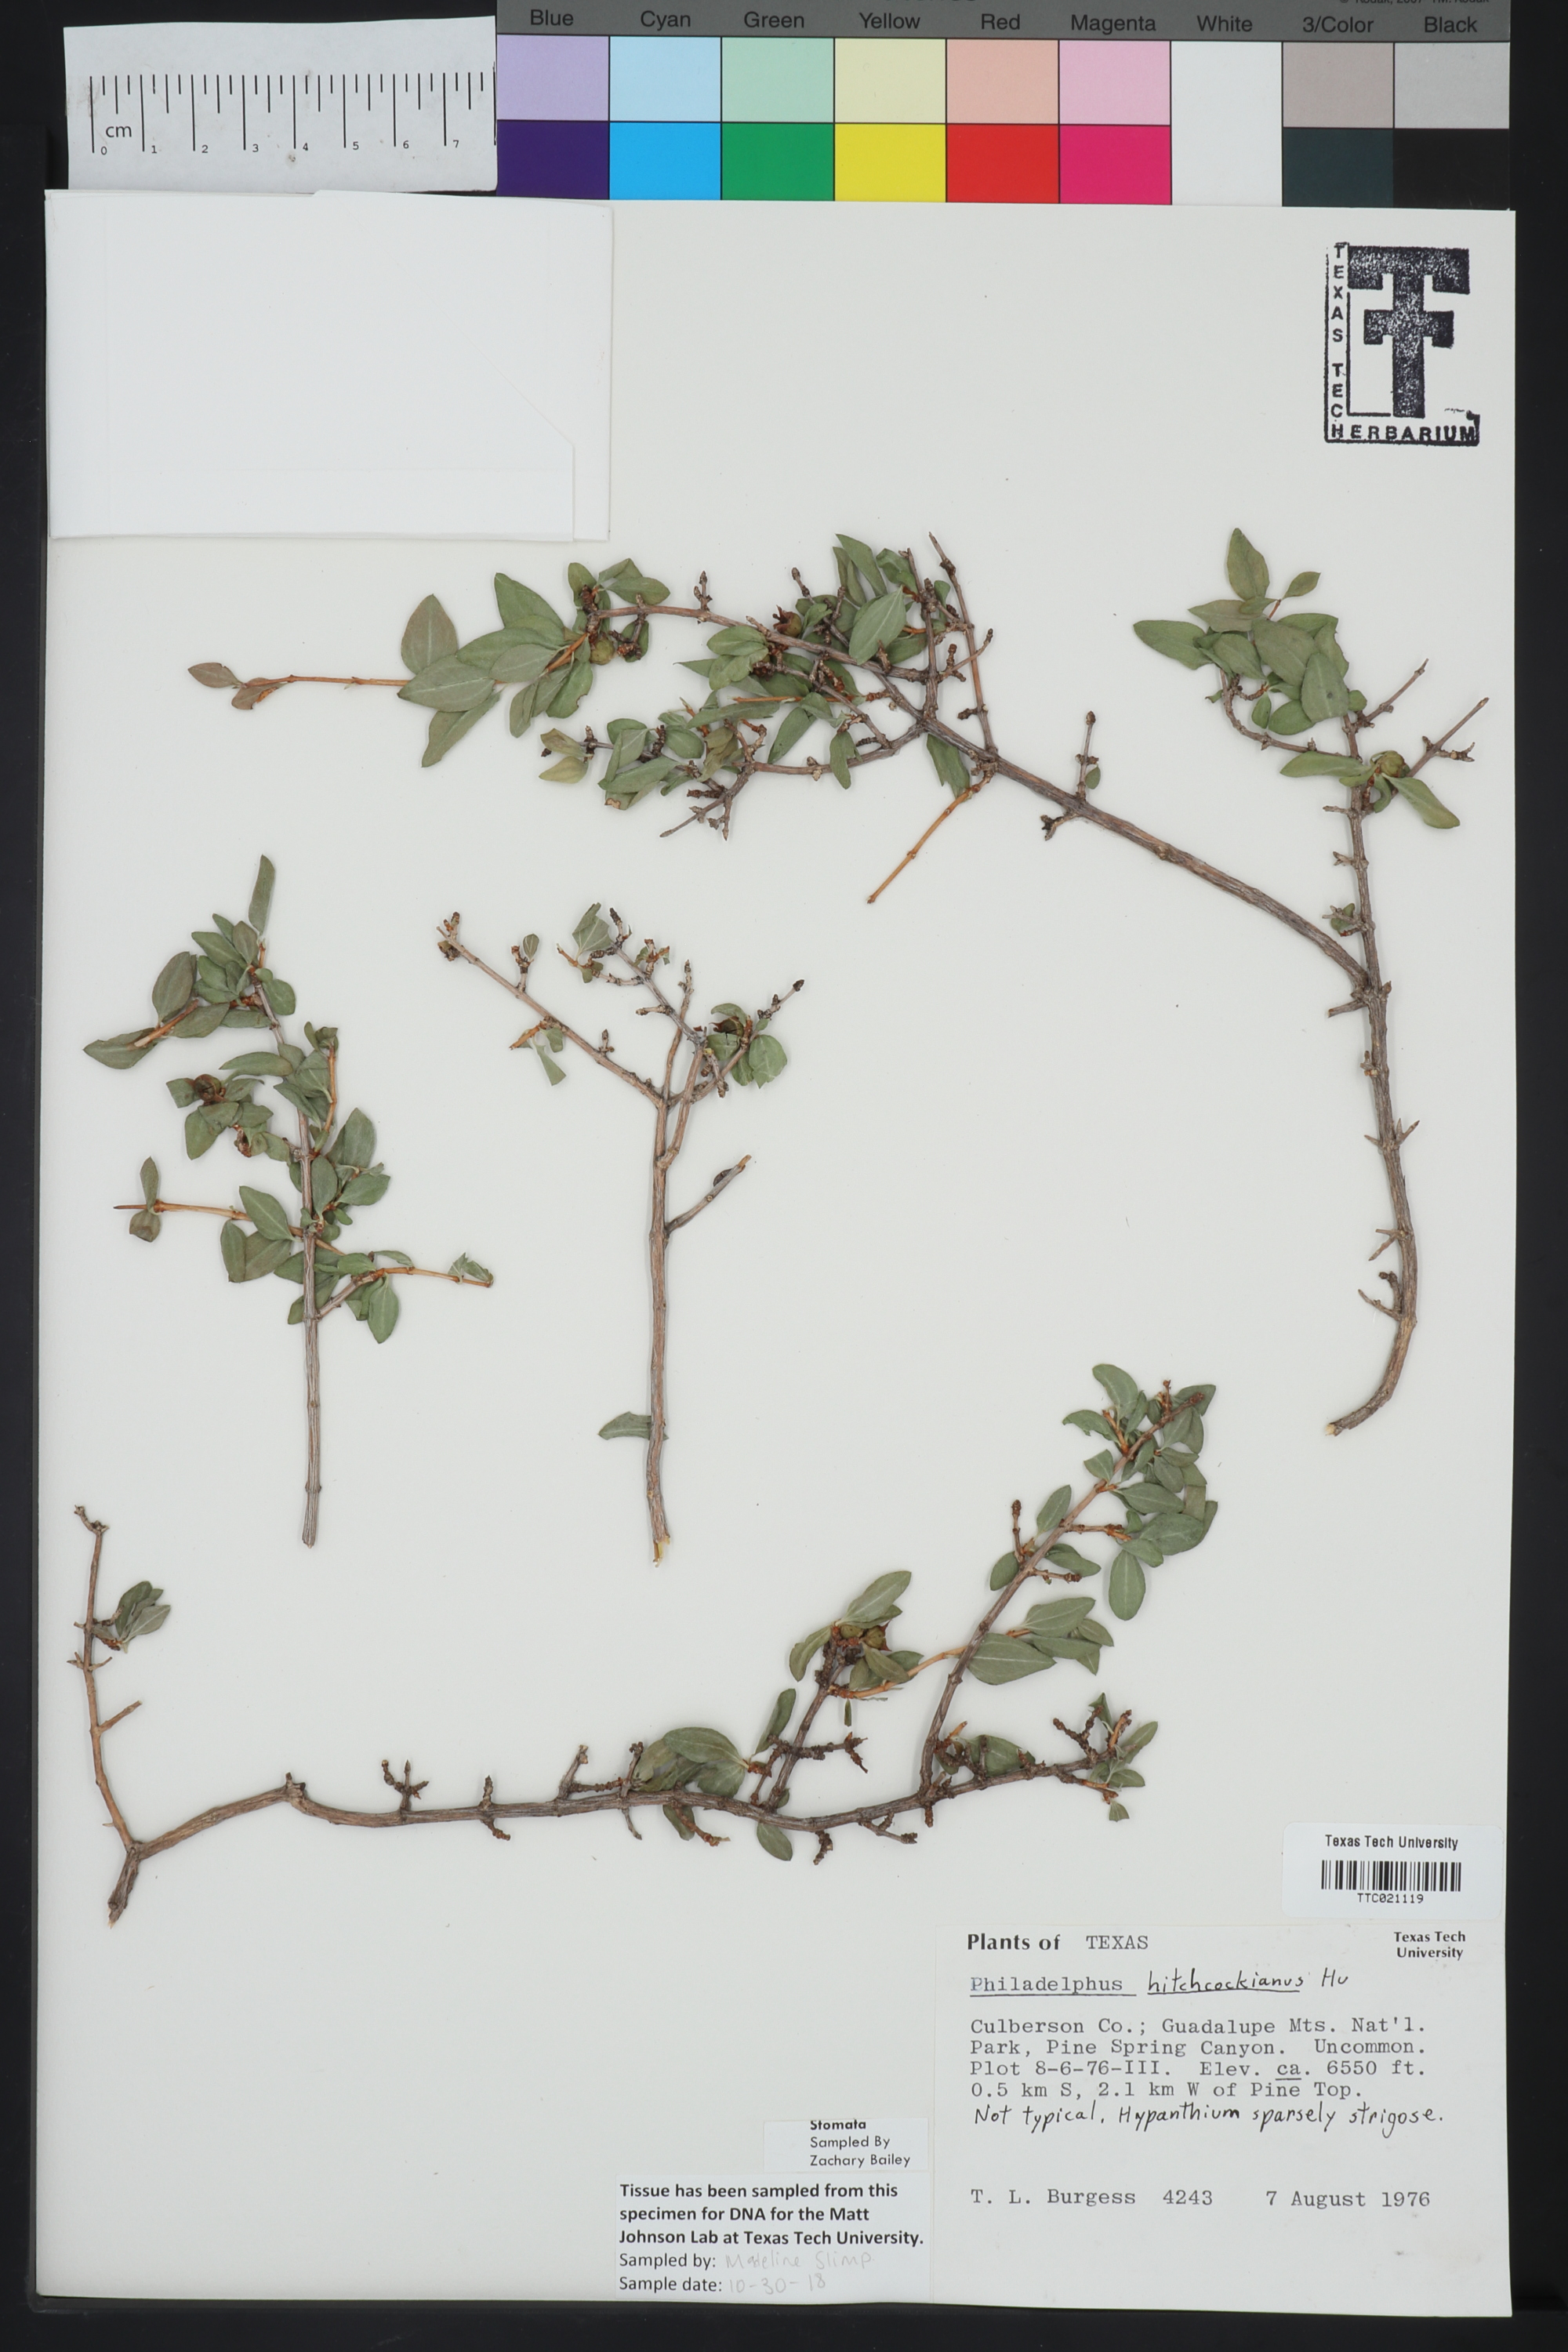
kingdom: Plantae
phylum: Tracheophyta
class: Magnoliopsida
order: Cornales
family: Hydrangeaceae
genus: Philadelphus
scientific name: Philadelphus mearnsii
